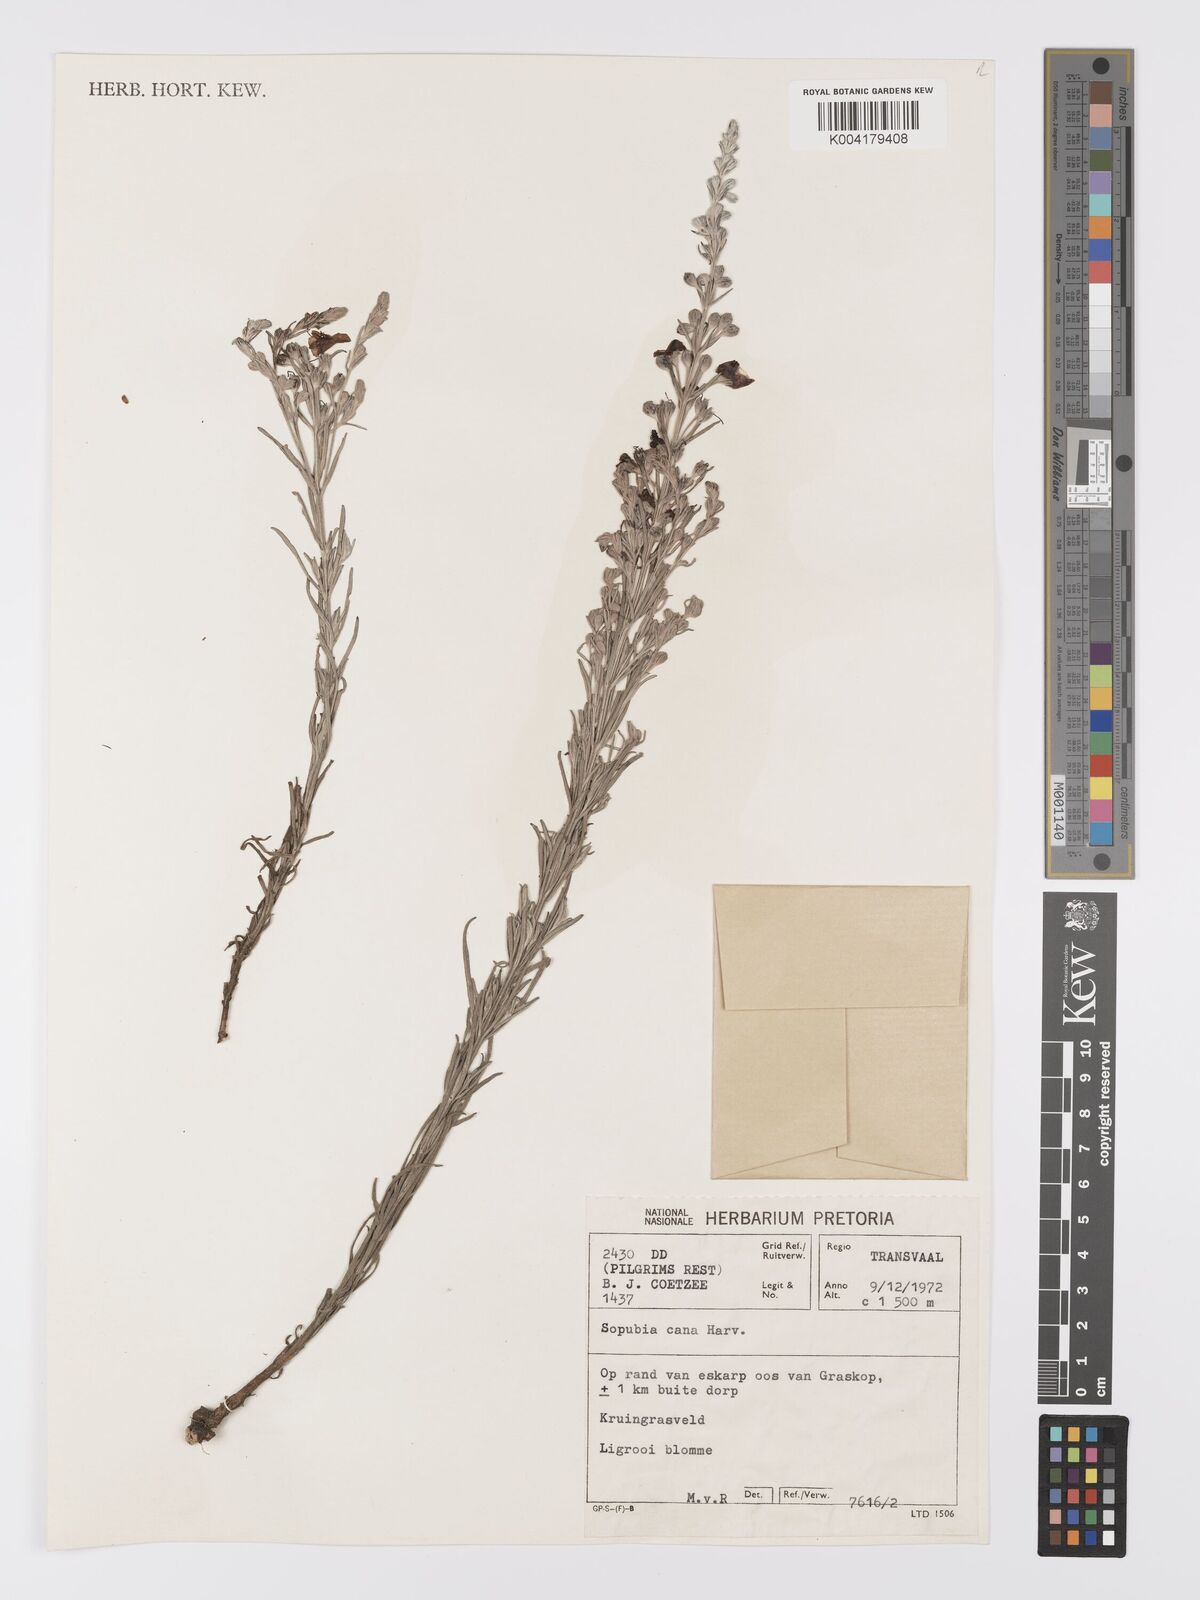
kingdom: Plantae
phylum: Tracheophyta
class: Magnoliopsida
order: Lamiales
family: Orobanchaceae
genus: Sopubia
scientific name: Sopubia cana
